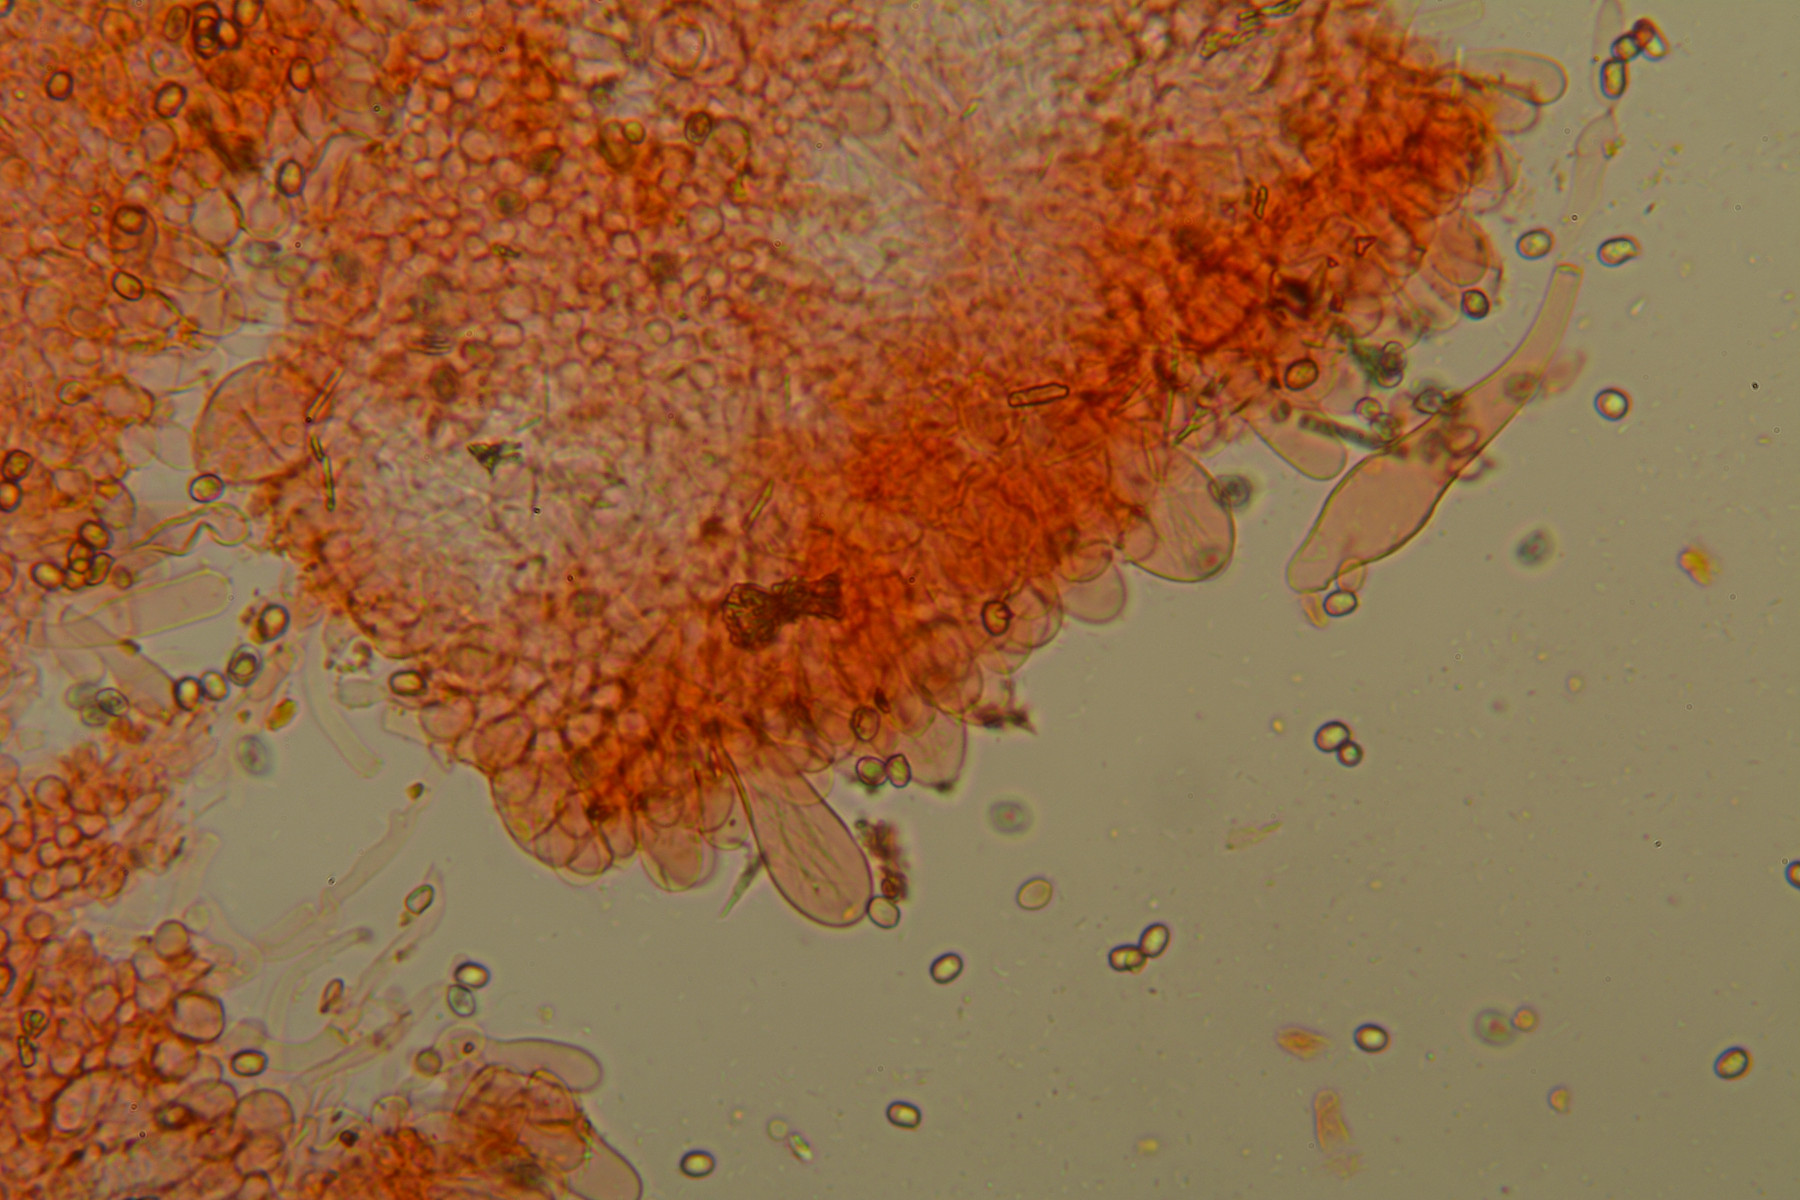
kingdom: Fungi
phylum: Basidiomycota
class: Agaricomycetes
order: Agaricales
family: Pluteaceae
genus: Pluteus
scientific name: Pluteus phlebophorus
